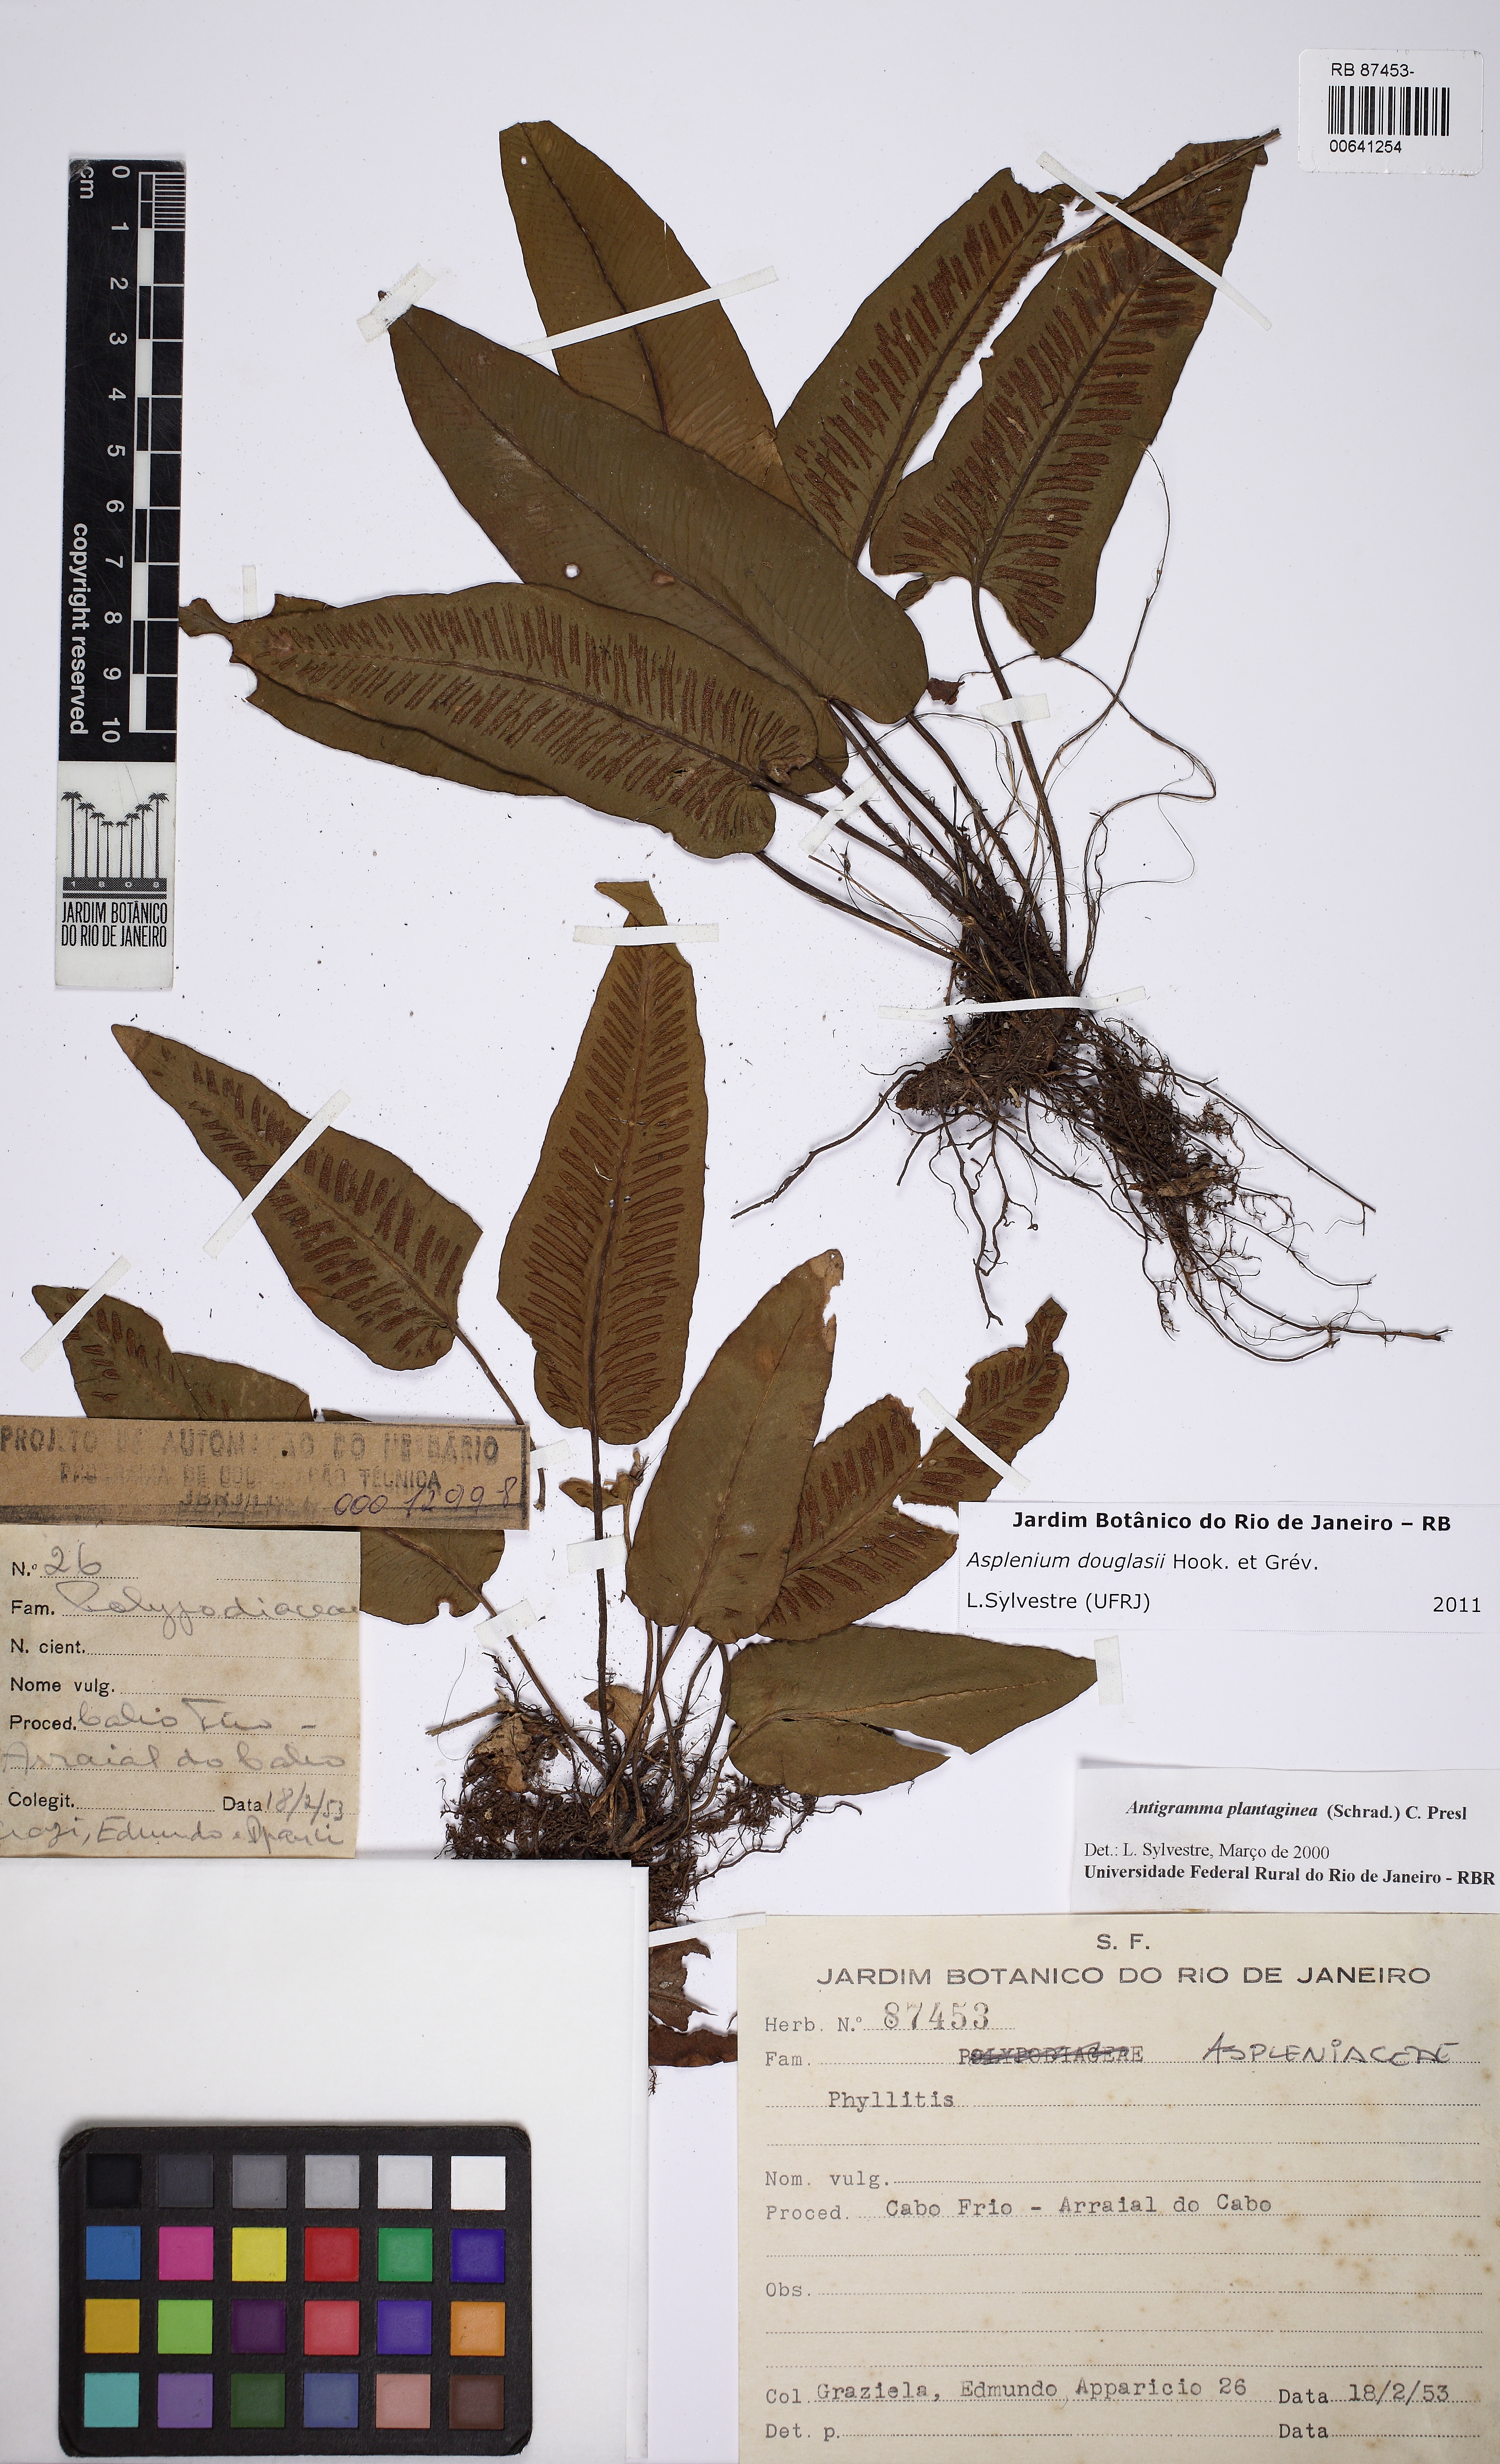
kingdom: Plantae
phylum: Tracheophyta
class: Polypodiopsida
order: Polypodiales
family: Aspleniaceae
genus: Asplenium
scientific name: Asplenium douglasii
